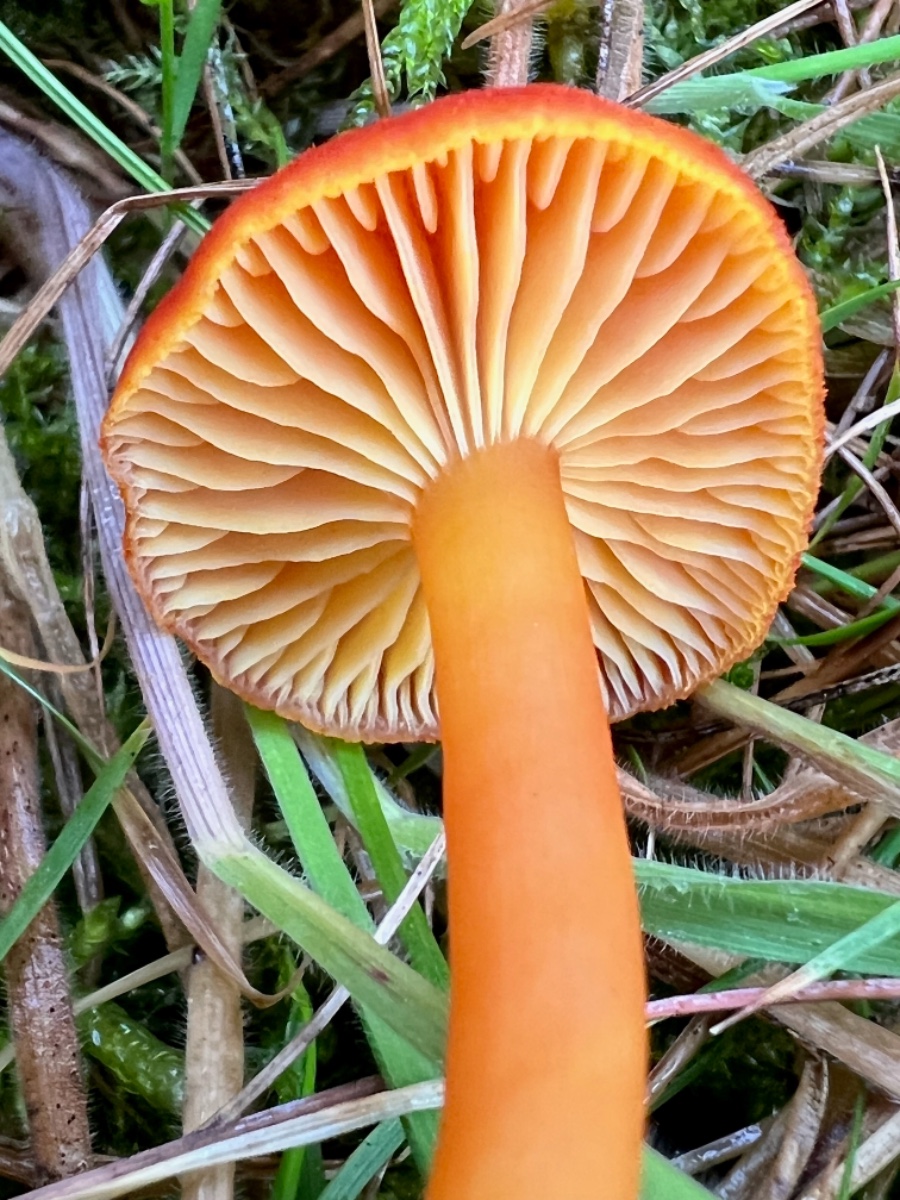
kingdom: Fungi
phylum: Basidiomycota
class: Agaricomycetes
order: Agaricales
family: Hygrophoraceae
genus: Hygrocybe
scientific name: Hygrocybe miniata
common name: mønje-vokshat
